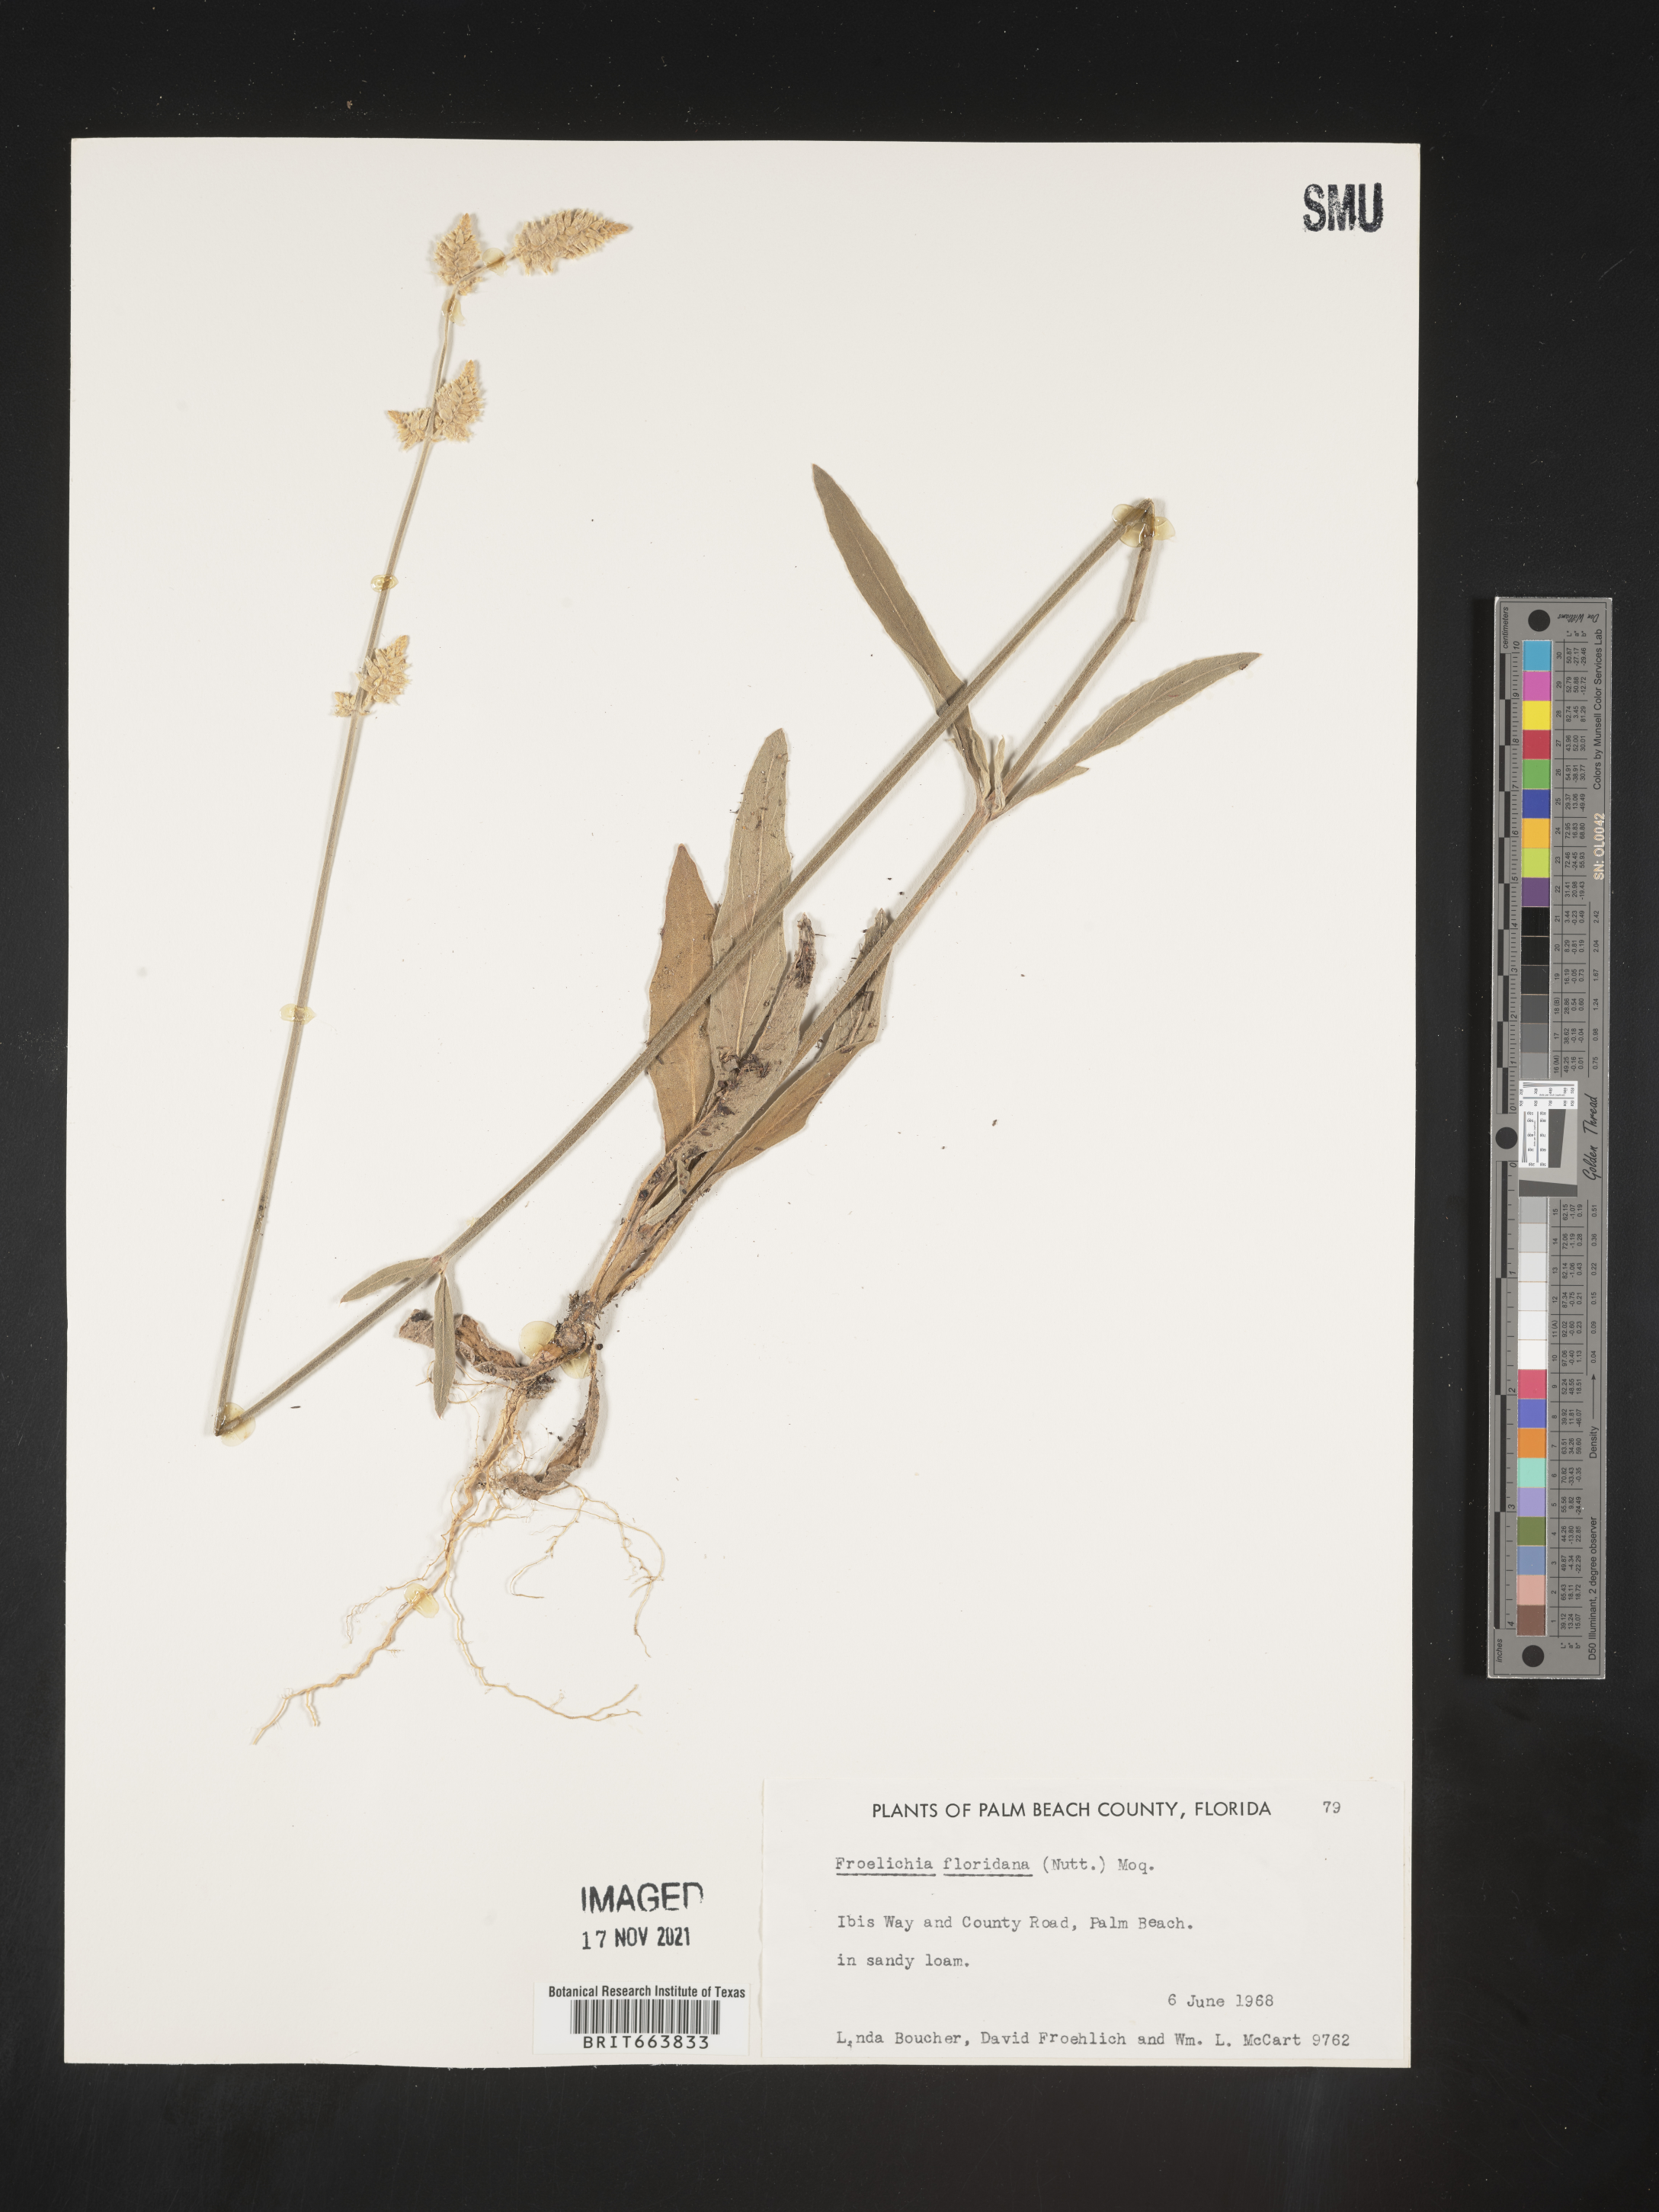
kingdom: Plantae
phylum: Tracheophyta
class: Magnoliopsida
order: Caryophyllales
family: Amaranthaceae
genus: Froelichia
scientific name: Froelichia floridana
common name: Florida snake-cotton
